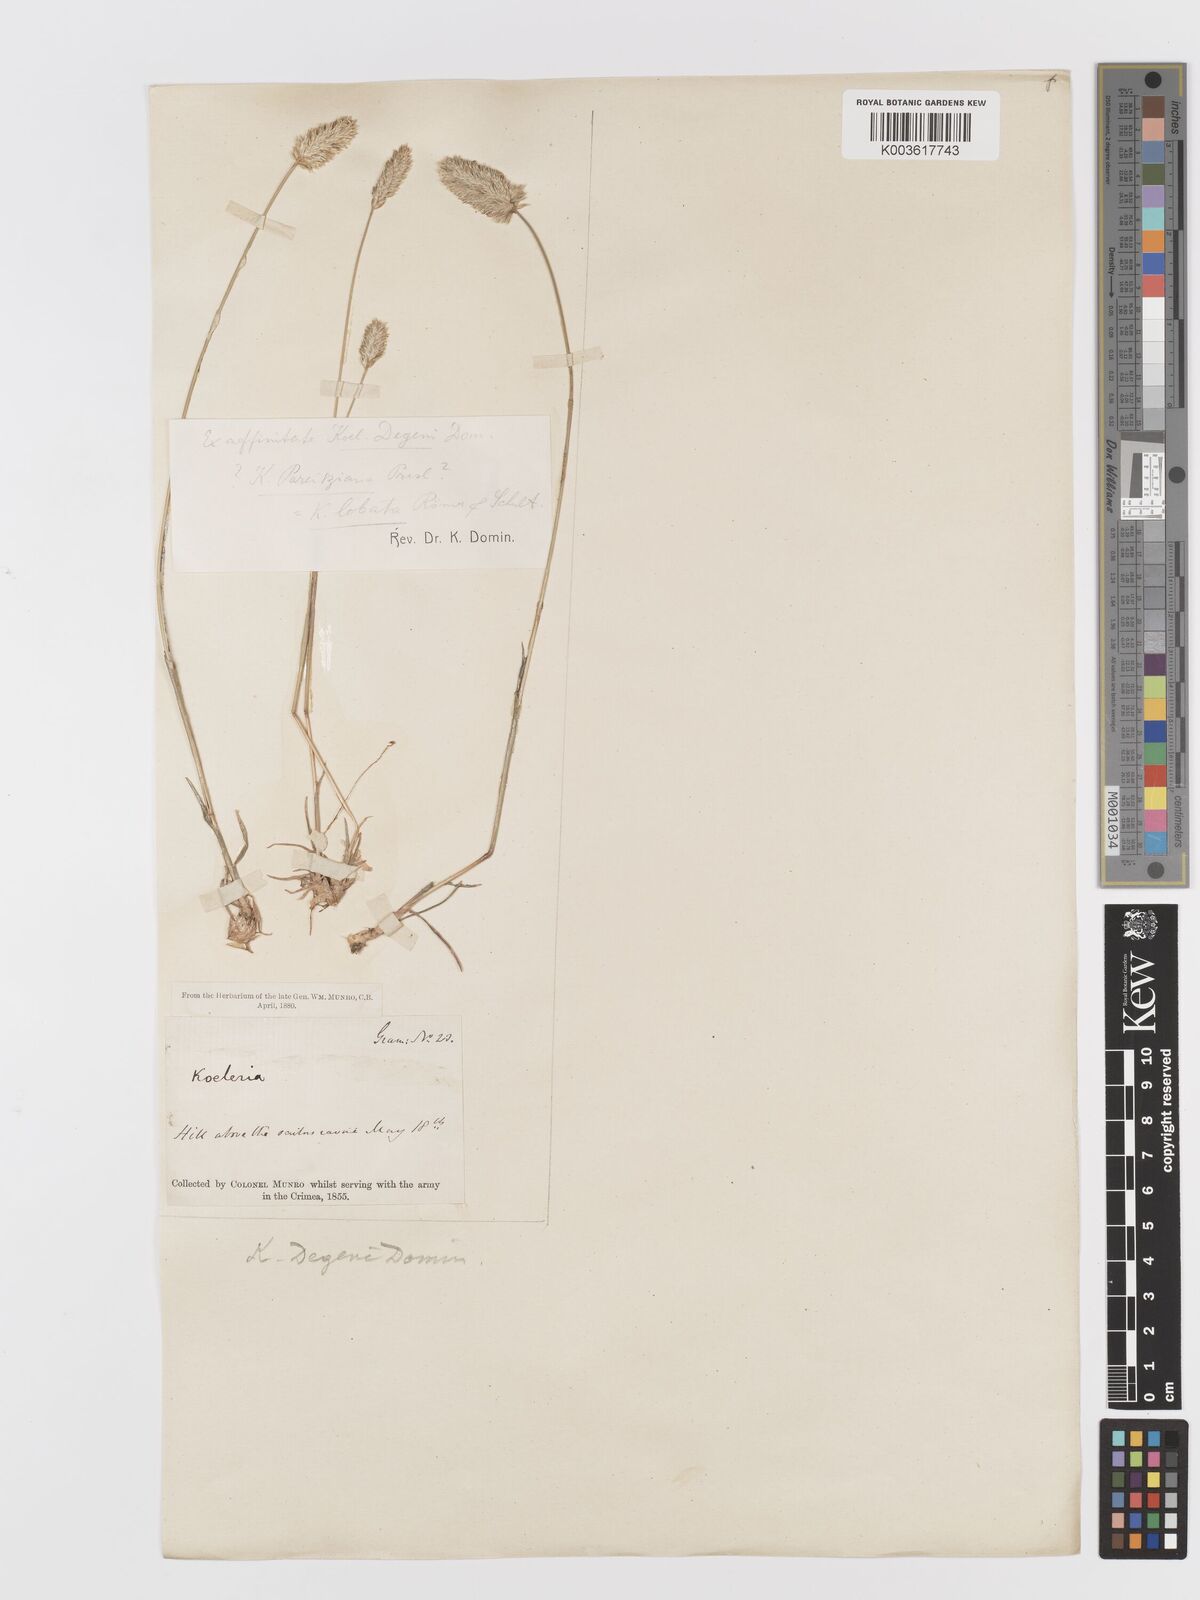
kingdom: Plantae
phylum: Tracheophyta
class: Liliopsida
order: Poales
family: Poaceae
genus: Koeleria
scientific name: Koeleria brevis
